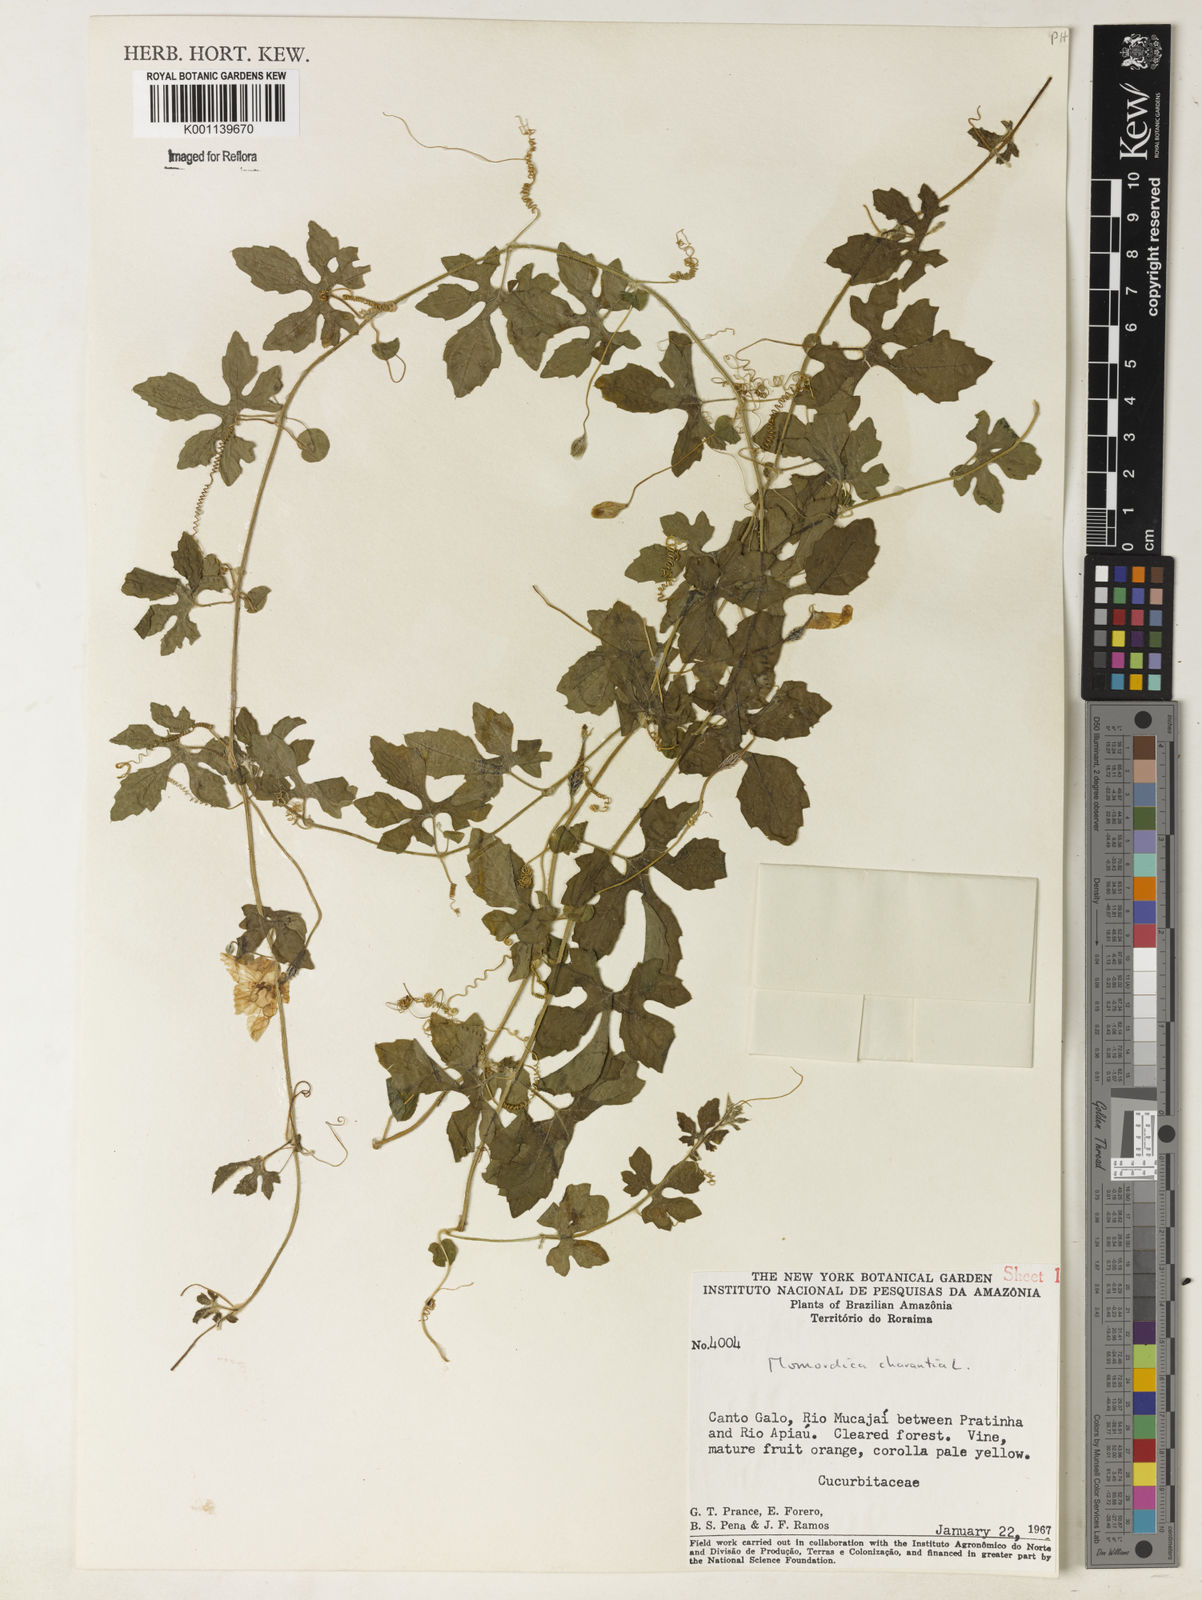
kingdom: Plantae
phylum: Tracheophyta
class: Magnoliopsida
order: Cucurbitales
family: Cucurbitaceae
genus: Momordica
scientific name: Momordica charantia
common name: Balsampear
